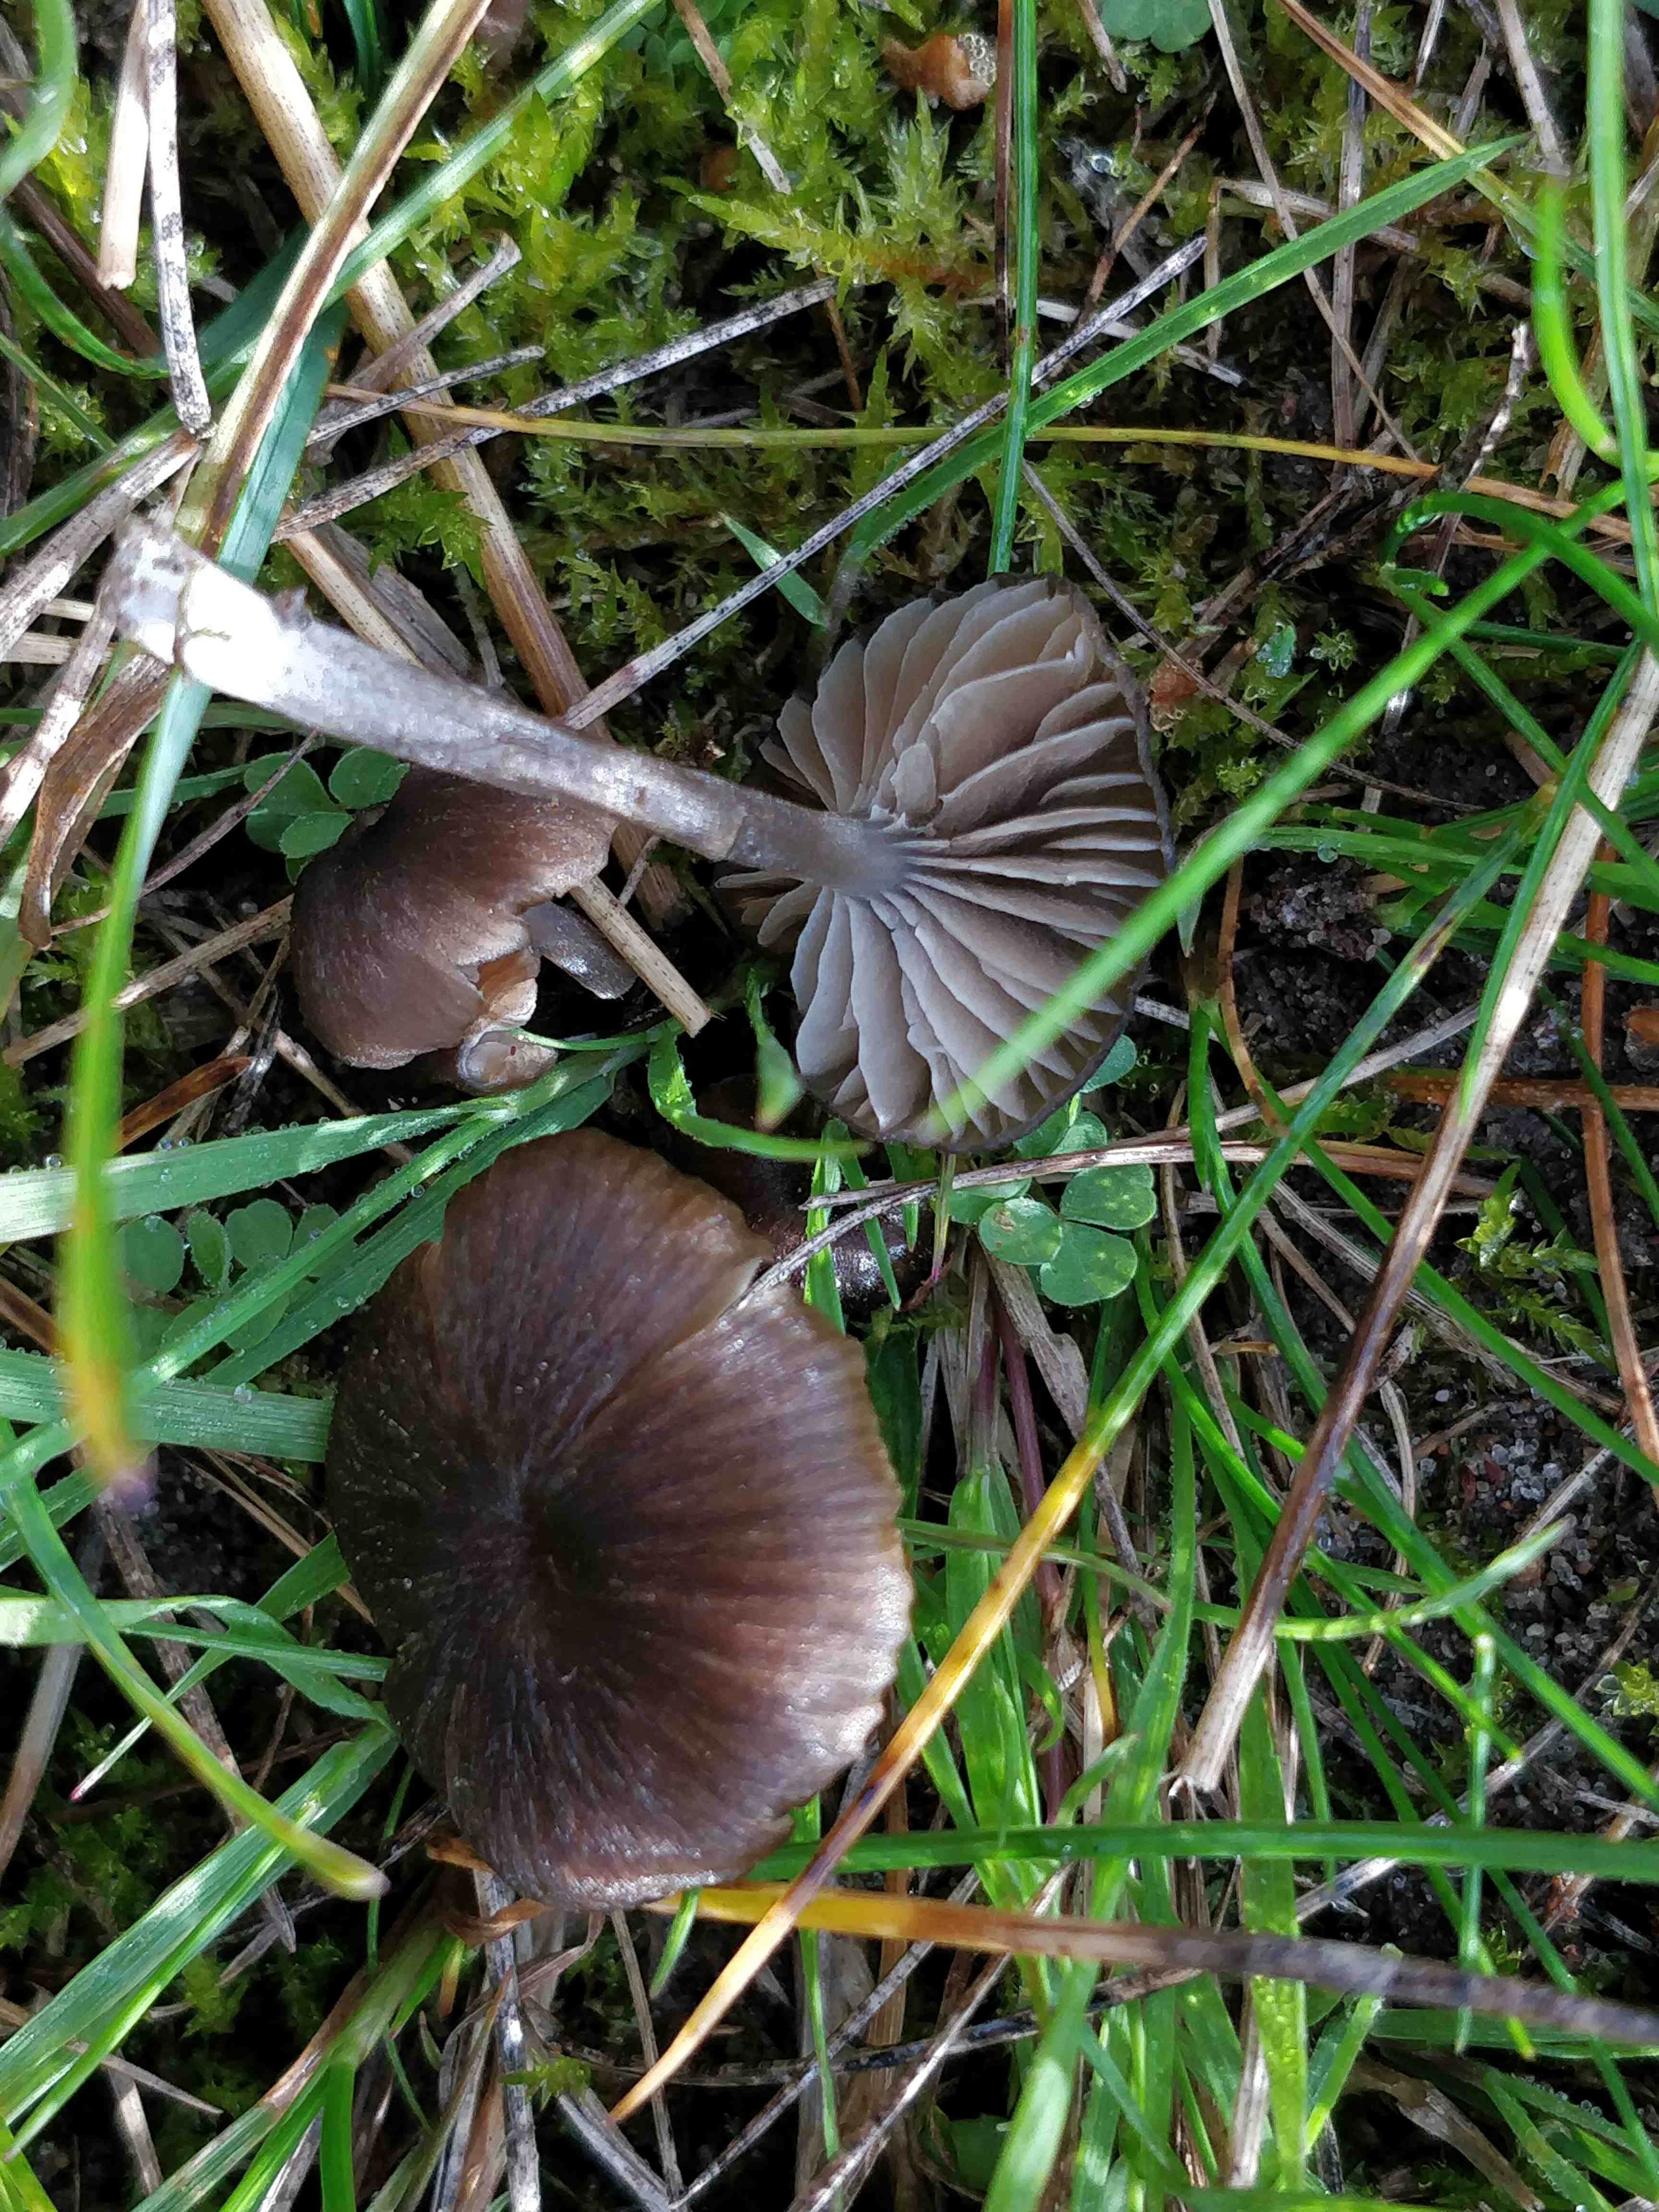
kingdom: Fungi
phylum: Basidiomycota
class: Agaricomycetes
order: Agaricales
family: Entolomataceae
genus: Entoloma
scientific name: Entoloma
